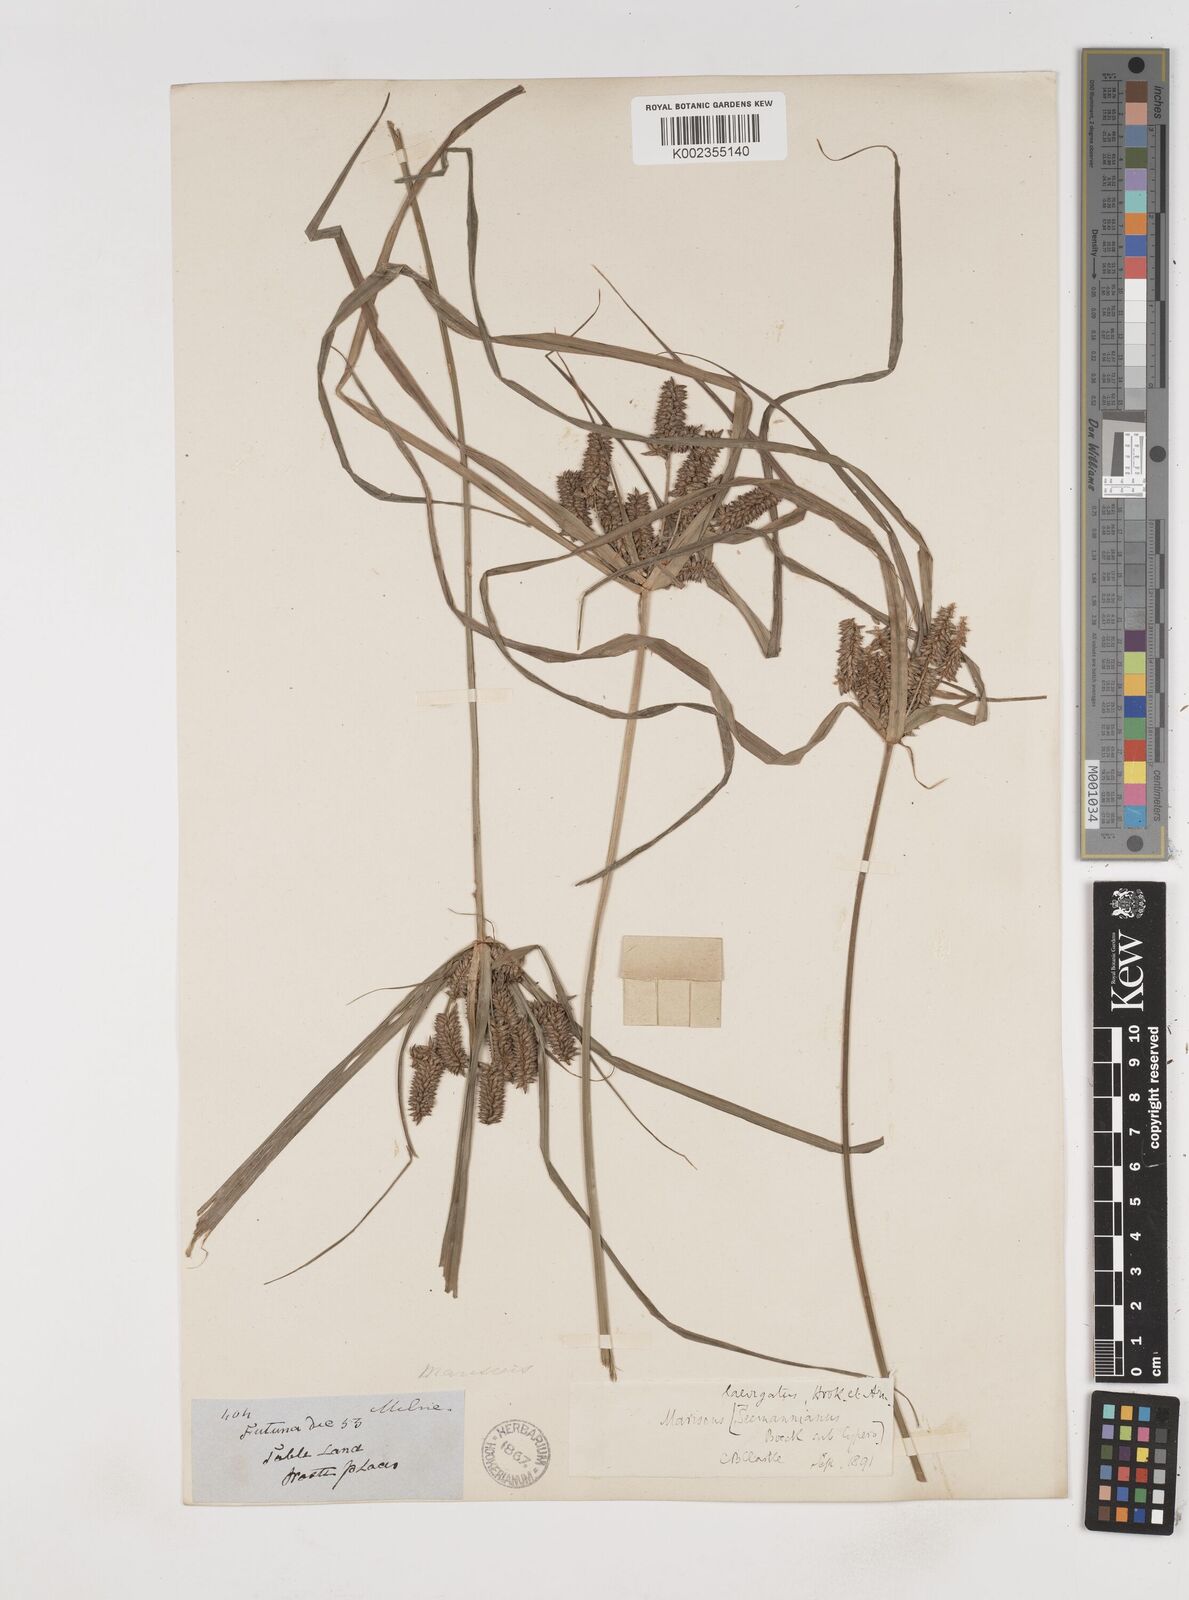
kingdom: Plantae
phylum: Tracheophyta
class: Liliopsida
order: Poales
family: Cyperaceae
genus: Cyperus
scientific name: Cyperus seemannianus
